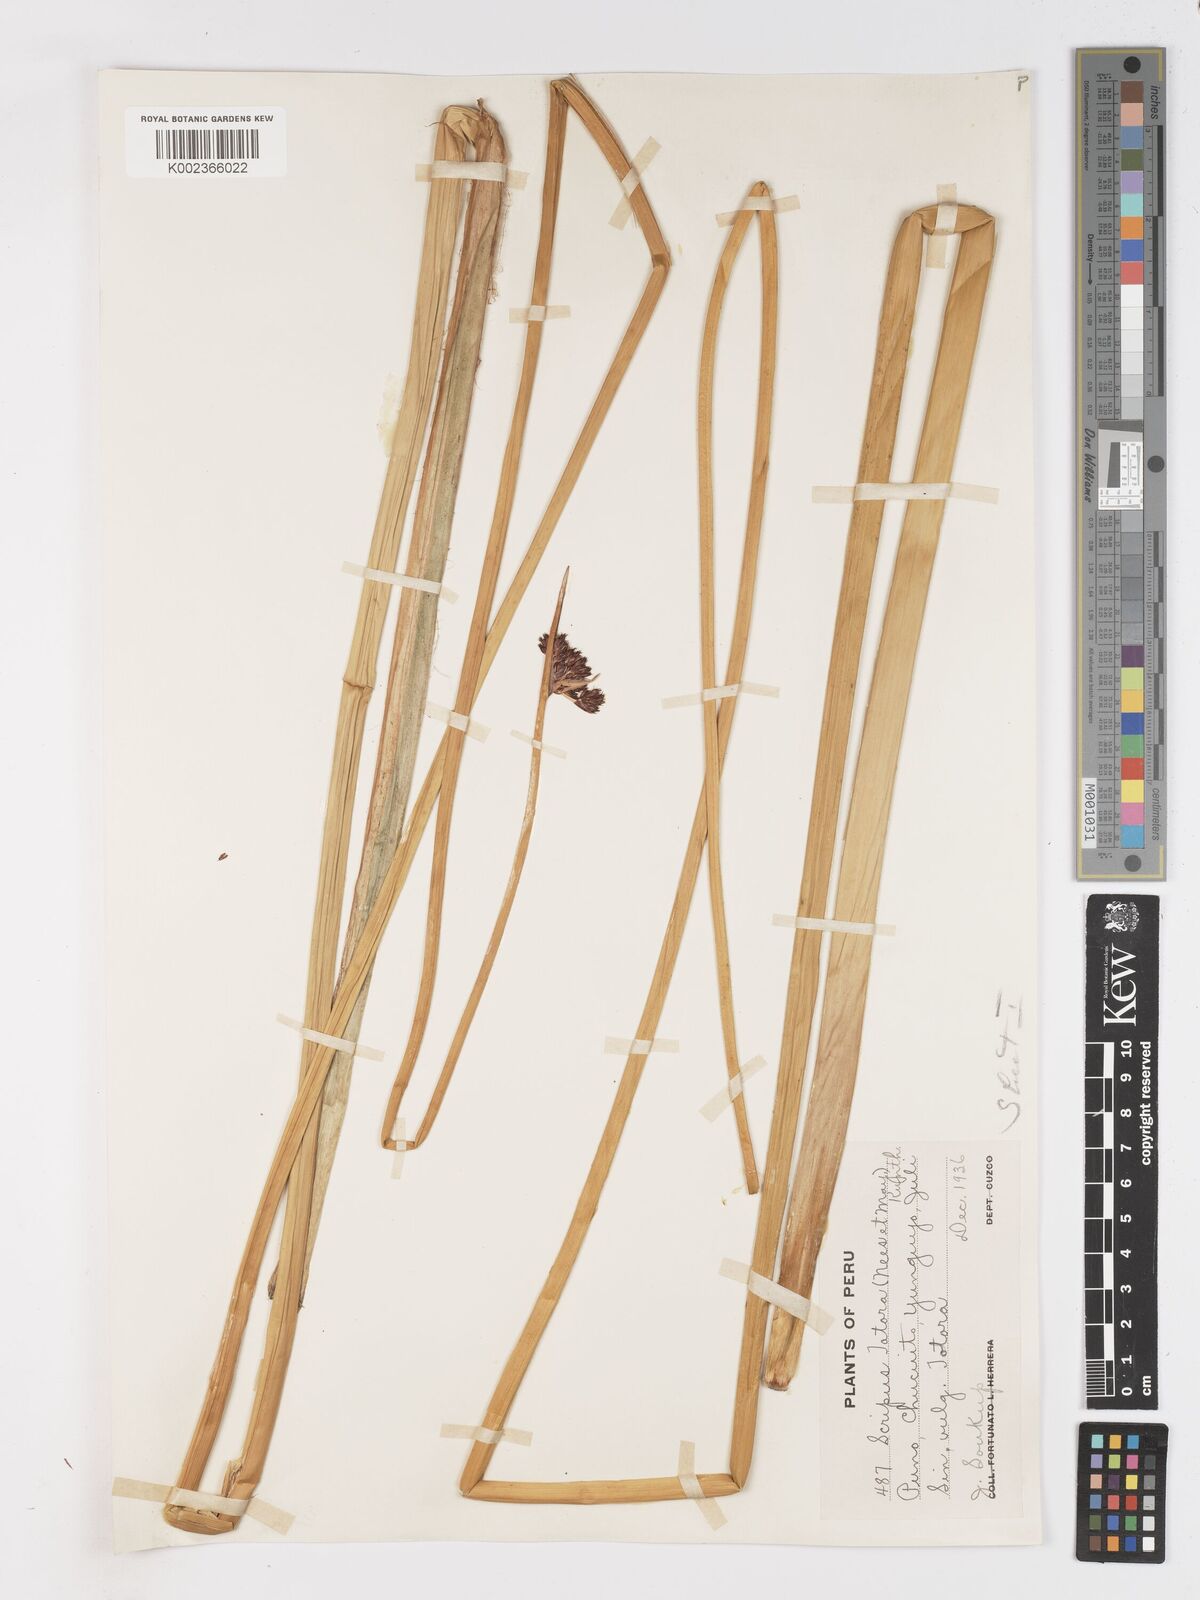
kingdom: Plantae
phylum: Tracheophyta
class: Liliopsida
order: Poales
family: Cyperaceae
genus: Schoenoplectus
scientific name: Schoenoplectus californicus
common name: California bulrush
